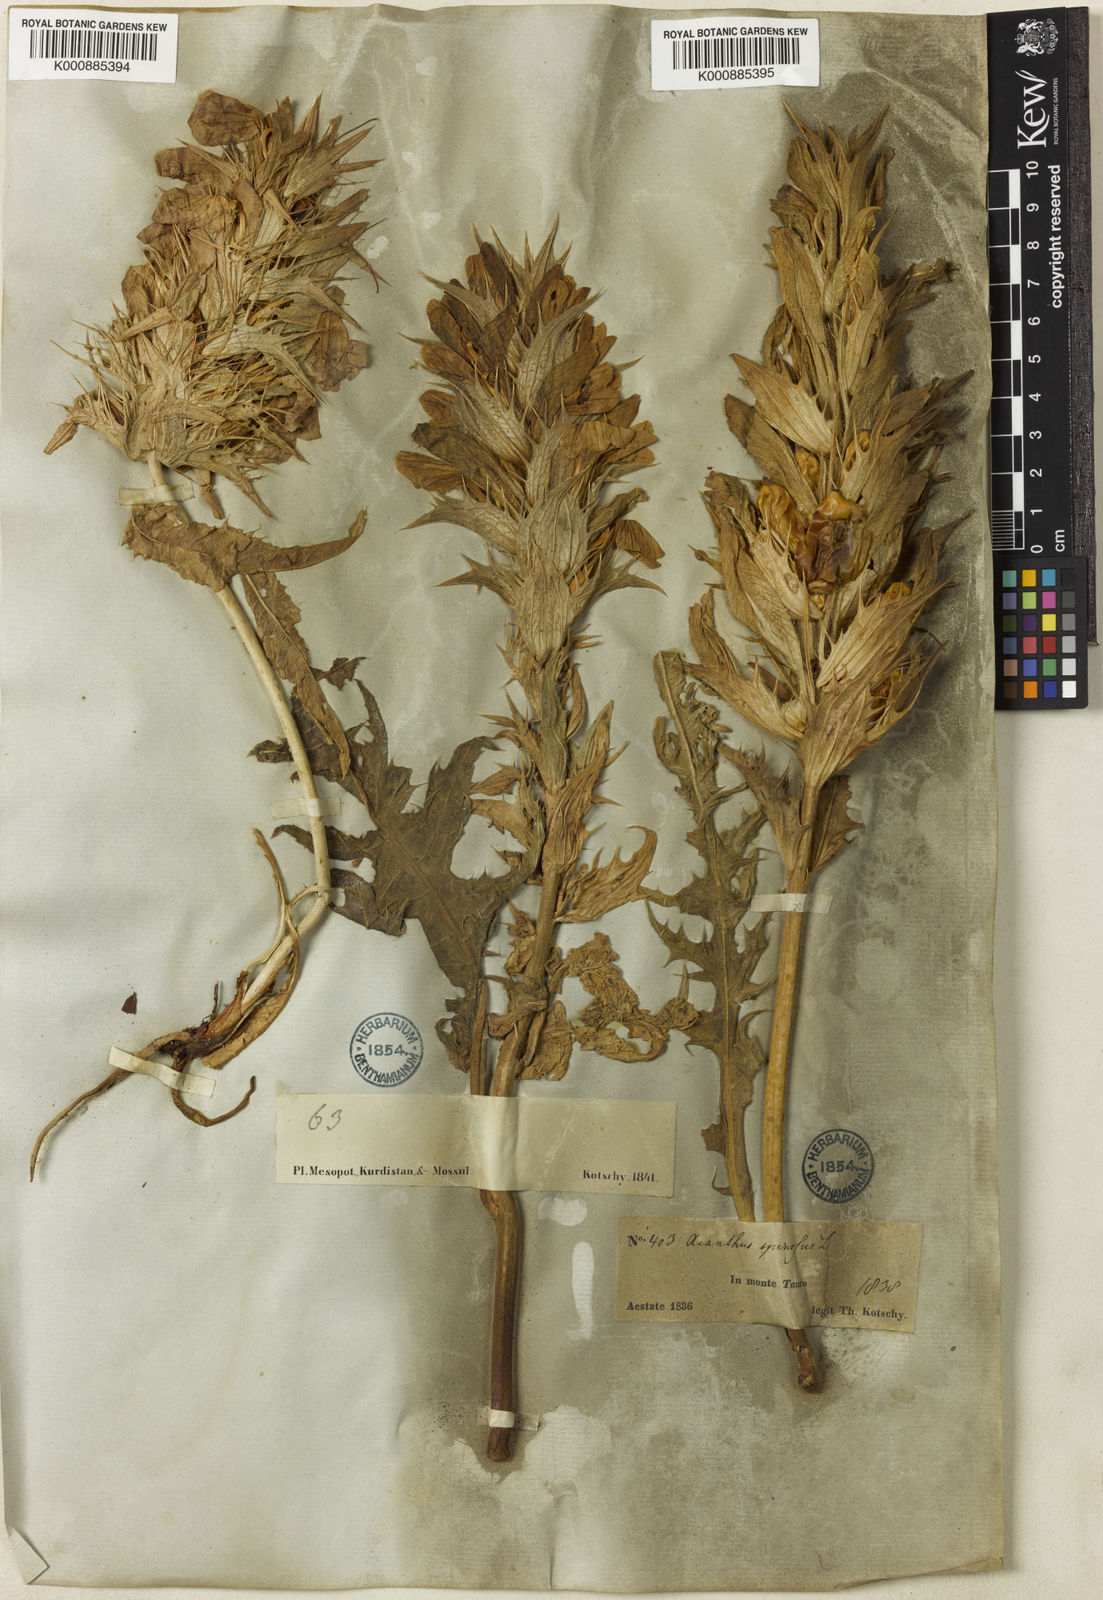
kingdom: Plantae
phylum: Tracheophyta
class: Magnoliopsida
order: Lamiales
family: Acanthaceae
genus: Acanthus
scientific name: Acanthus hirsutus
